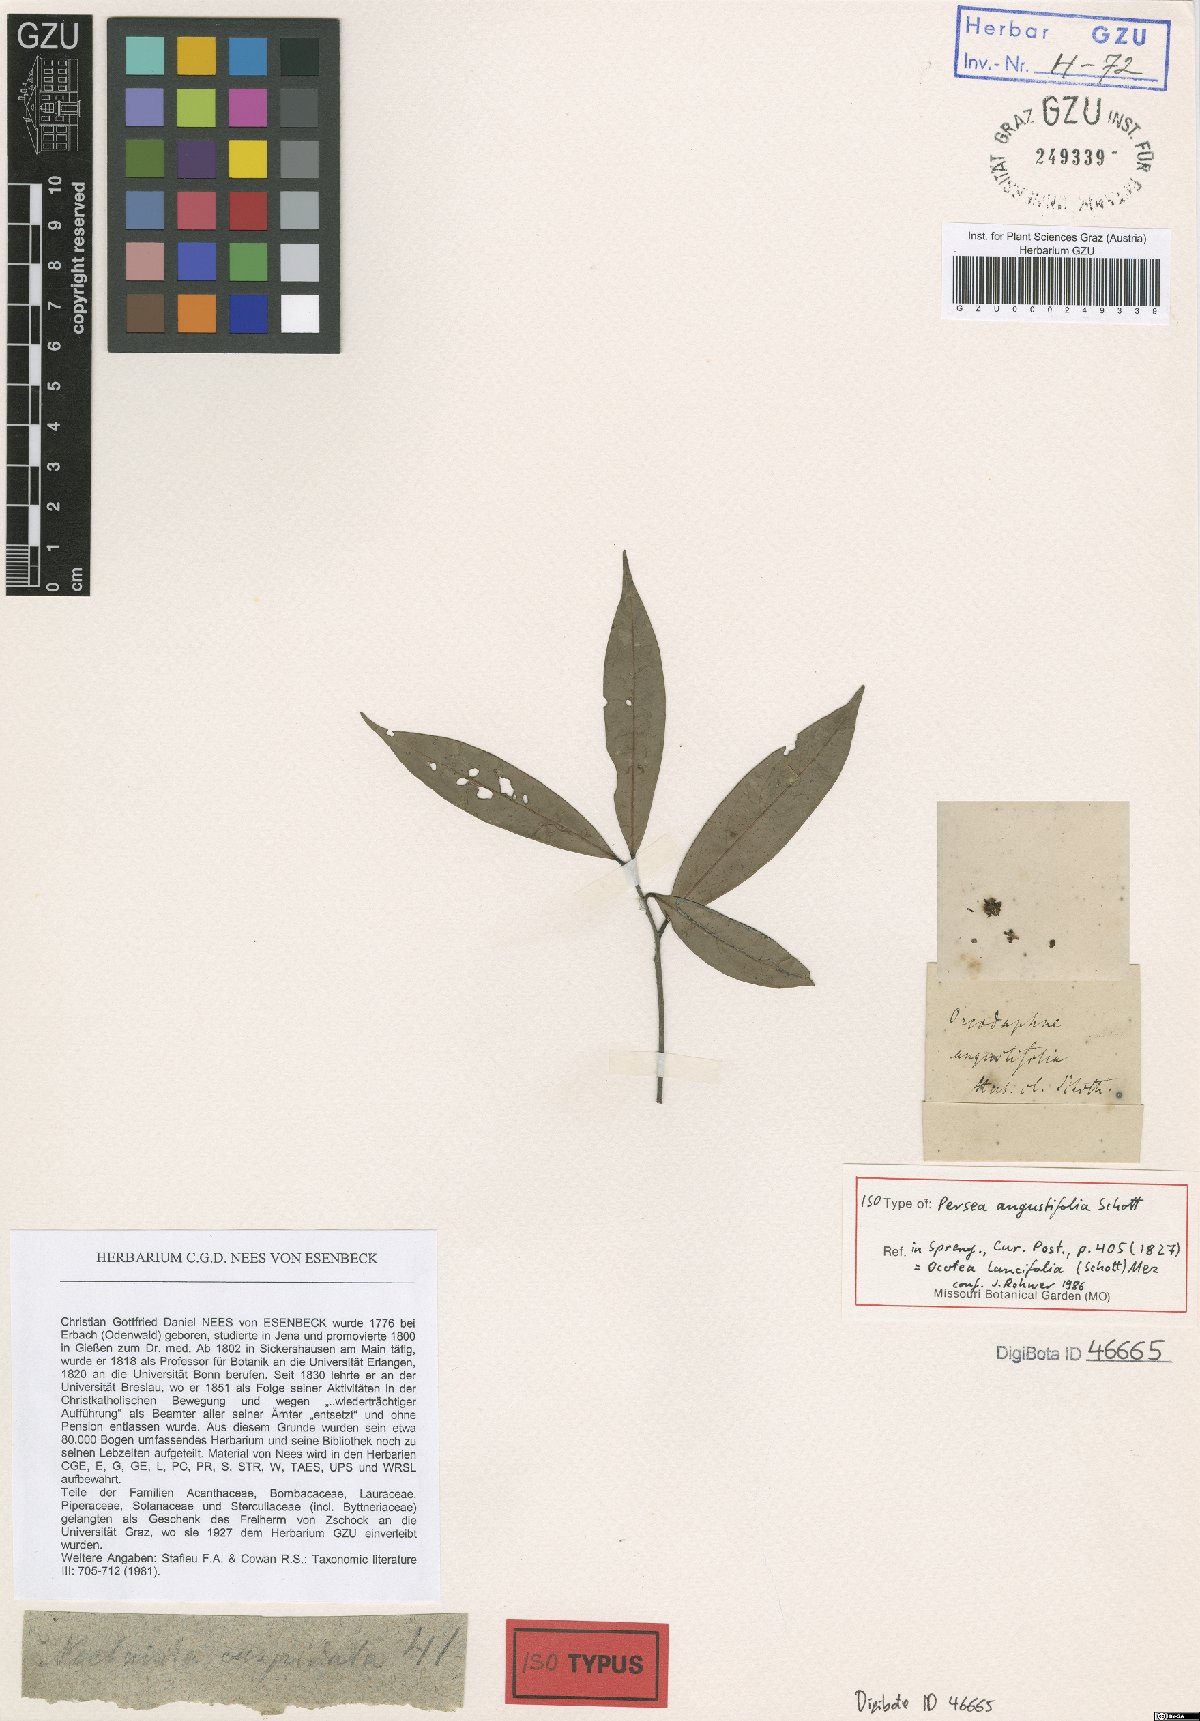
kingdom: Plantae
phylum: Tracheophyta
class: Magnoliopsida
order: Laurales
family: Lauraceae
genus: Ocotea
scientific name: Ocotea lancifolia
